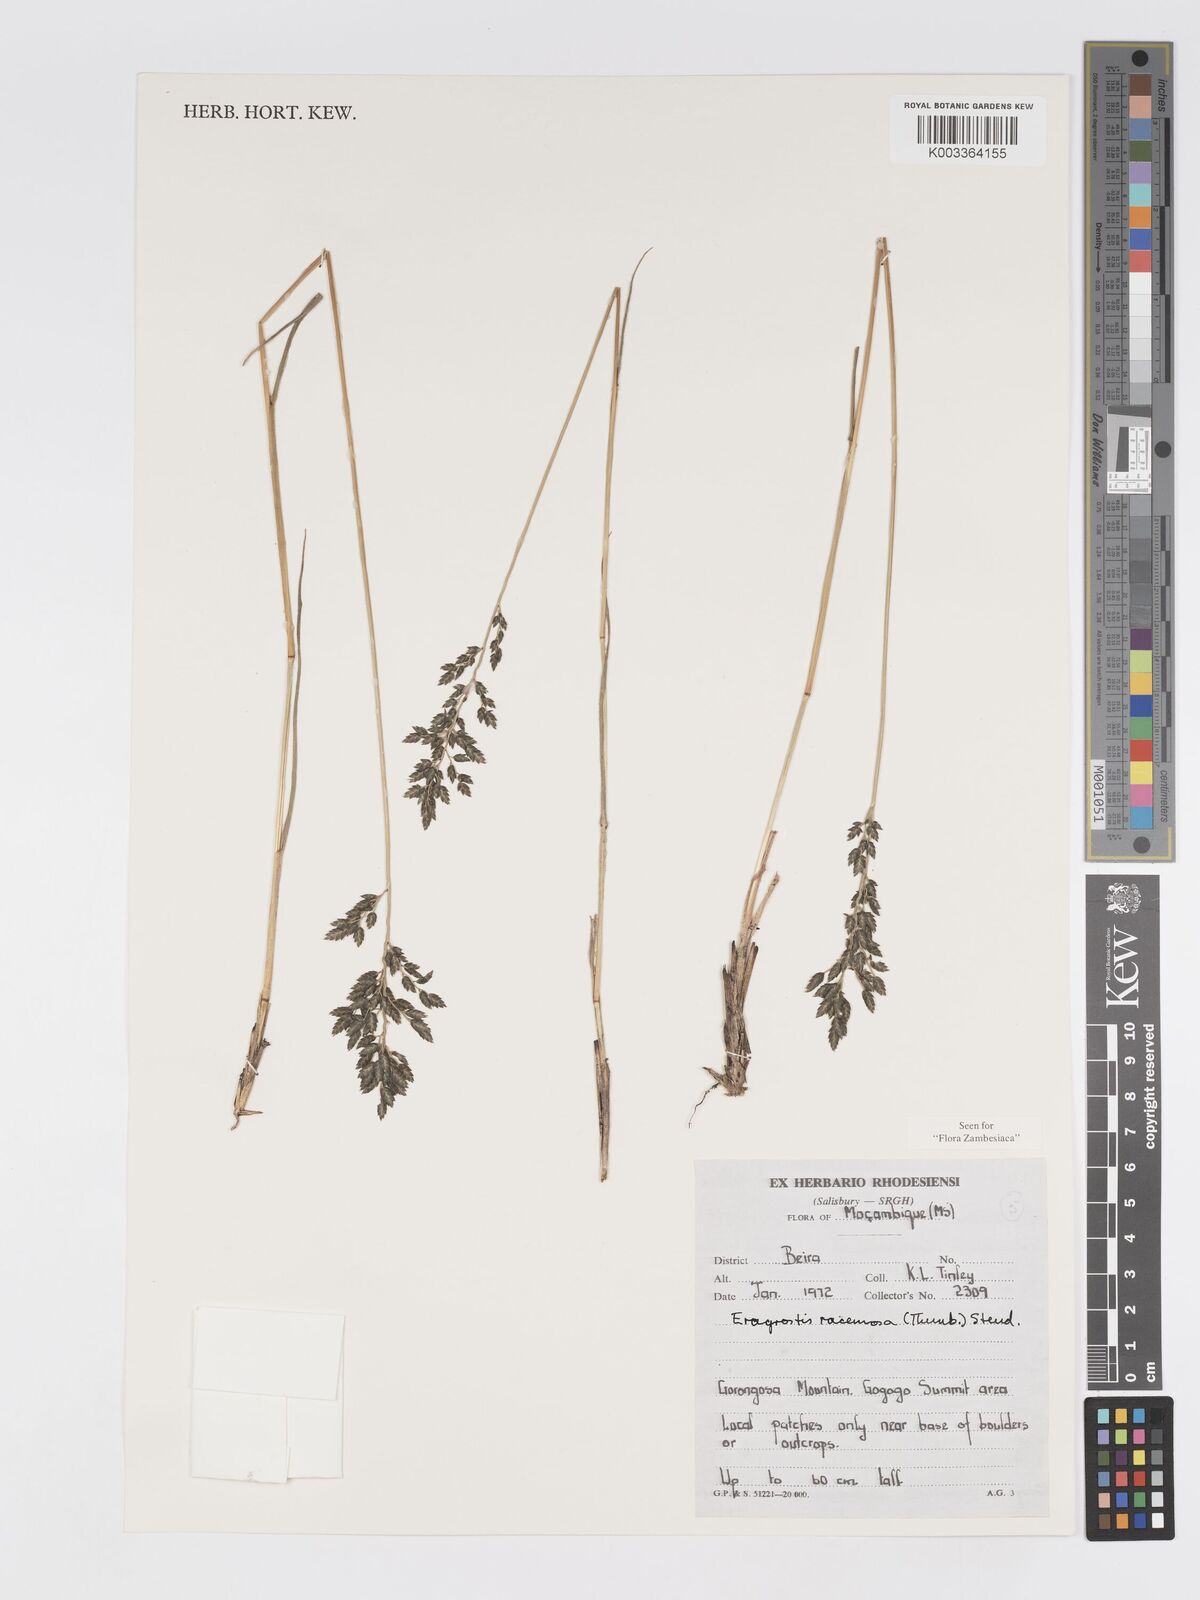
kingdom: Plantae
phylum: Tracheophyta
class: Liliopsida
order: Poales
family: Poaceae
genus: Eragrostis
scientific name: Eragrostis racemosa
